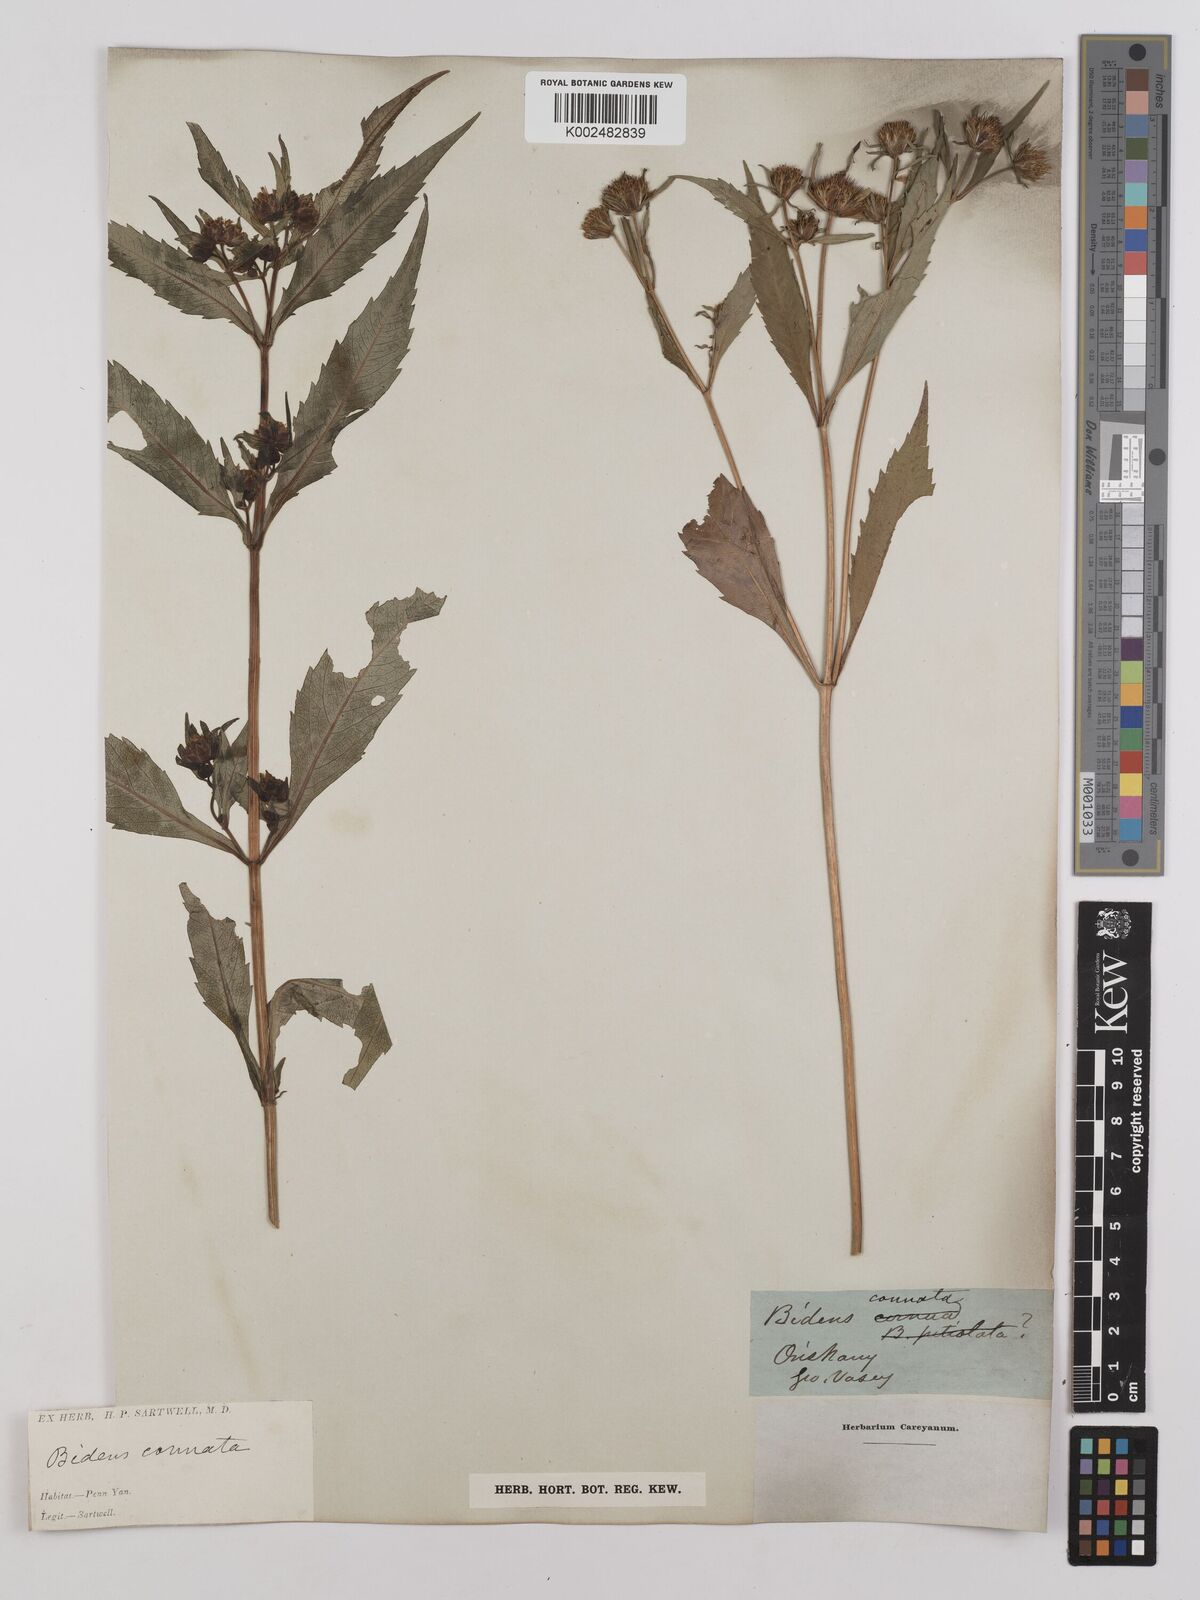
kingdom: Plantae
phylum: Tracheophyta
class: Magnoliopsida
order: Asterales
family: Asteraceae
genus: Bidens
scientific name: Bidens connata
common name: London bur-marigold
